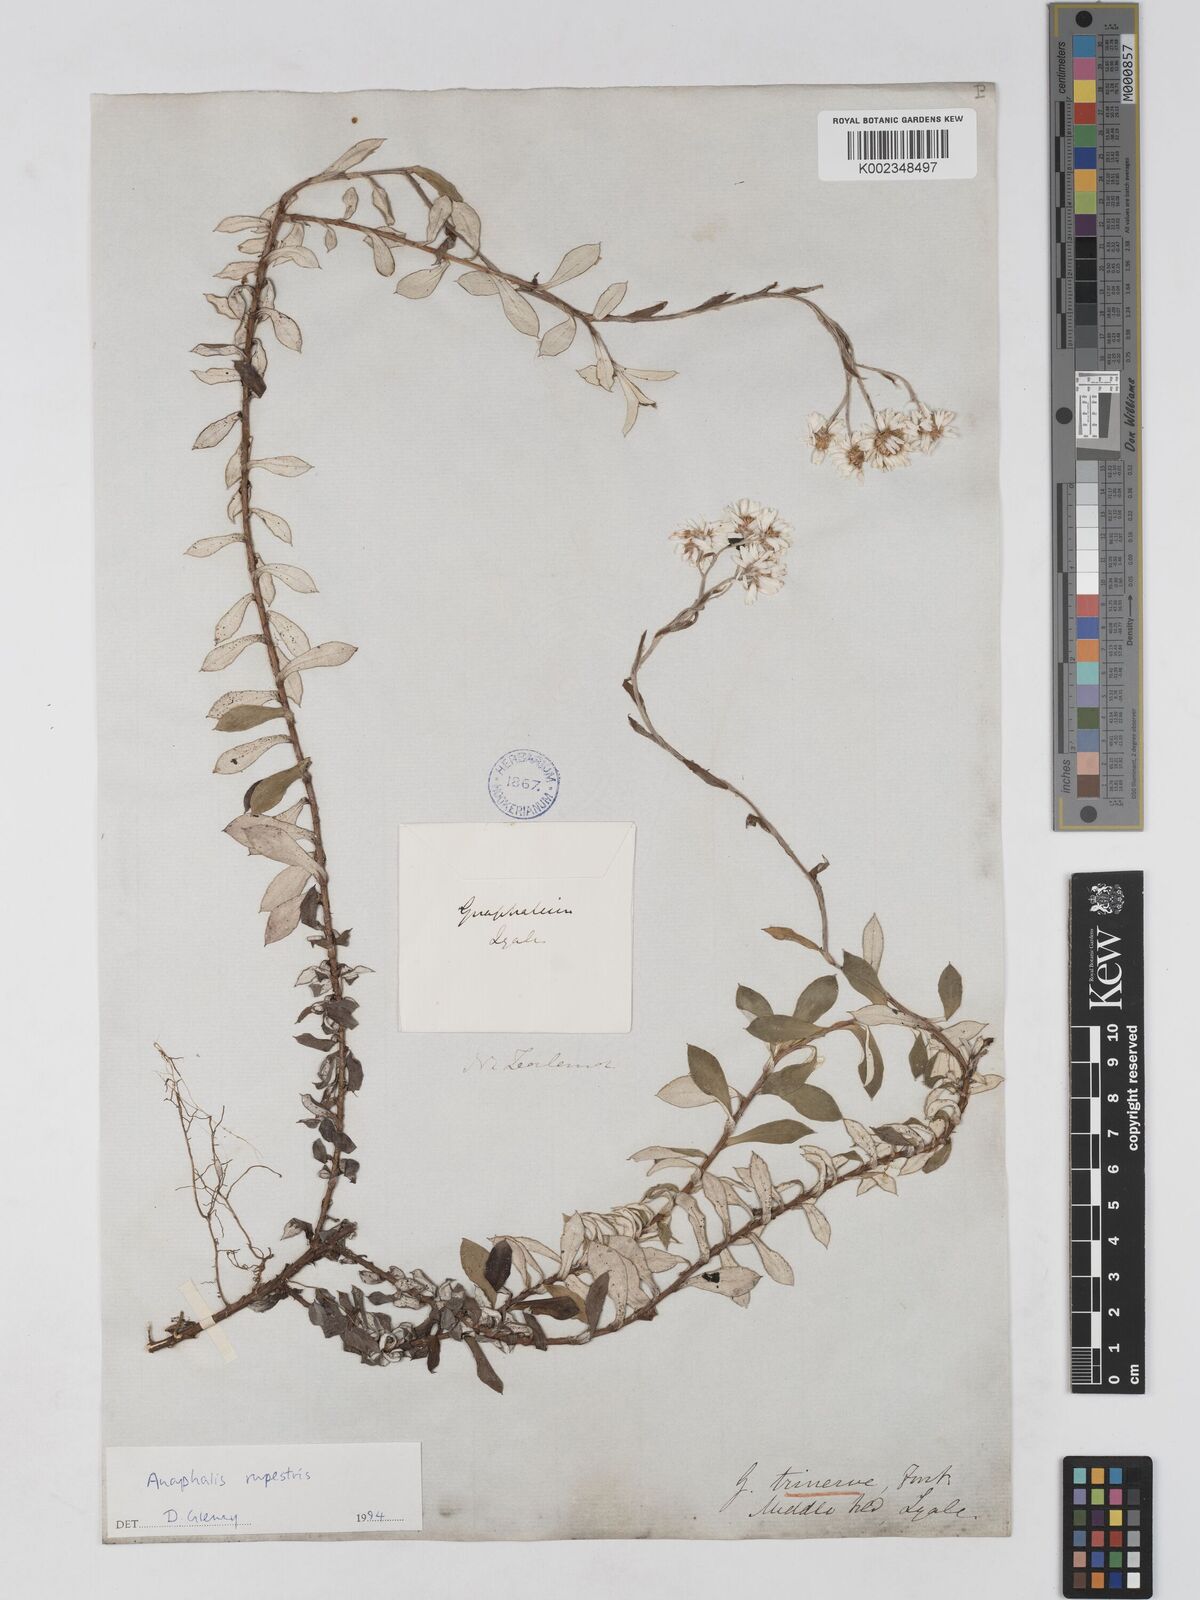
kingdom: Plantae
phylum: Tracheophyta
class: Magnoliopsida
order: Asterales
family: Asteraceae
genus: Anaphaloides
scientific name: Anaphaloides
